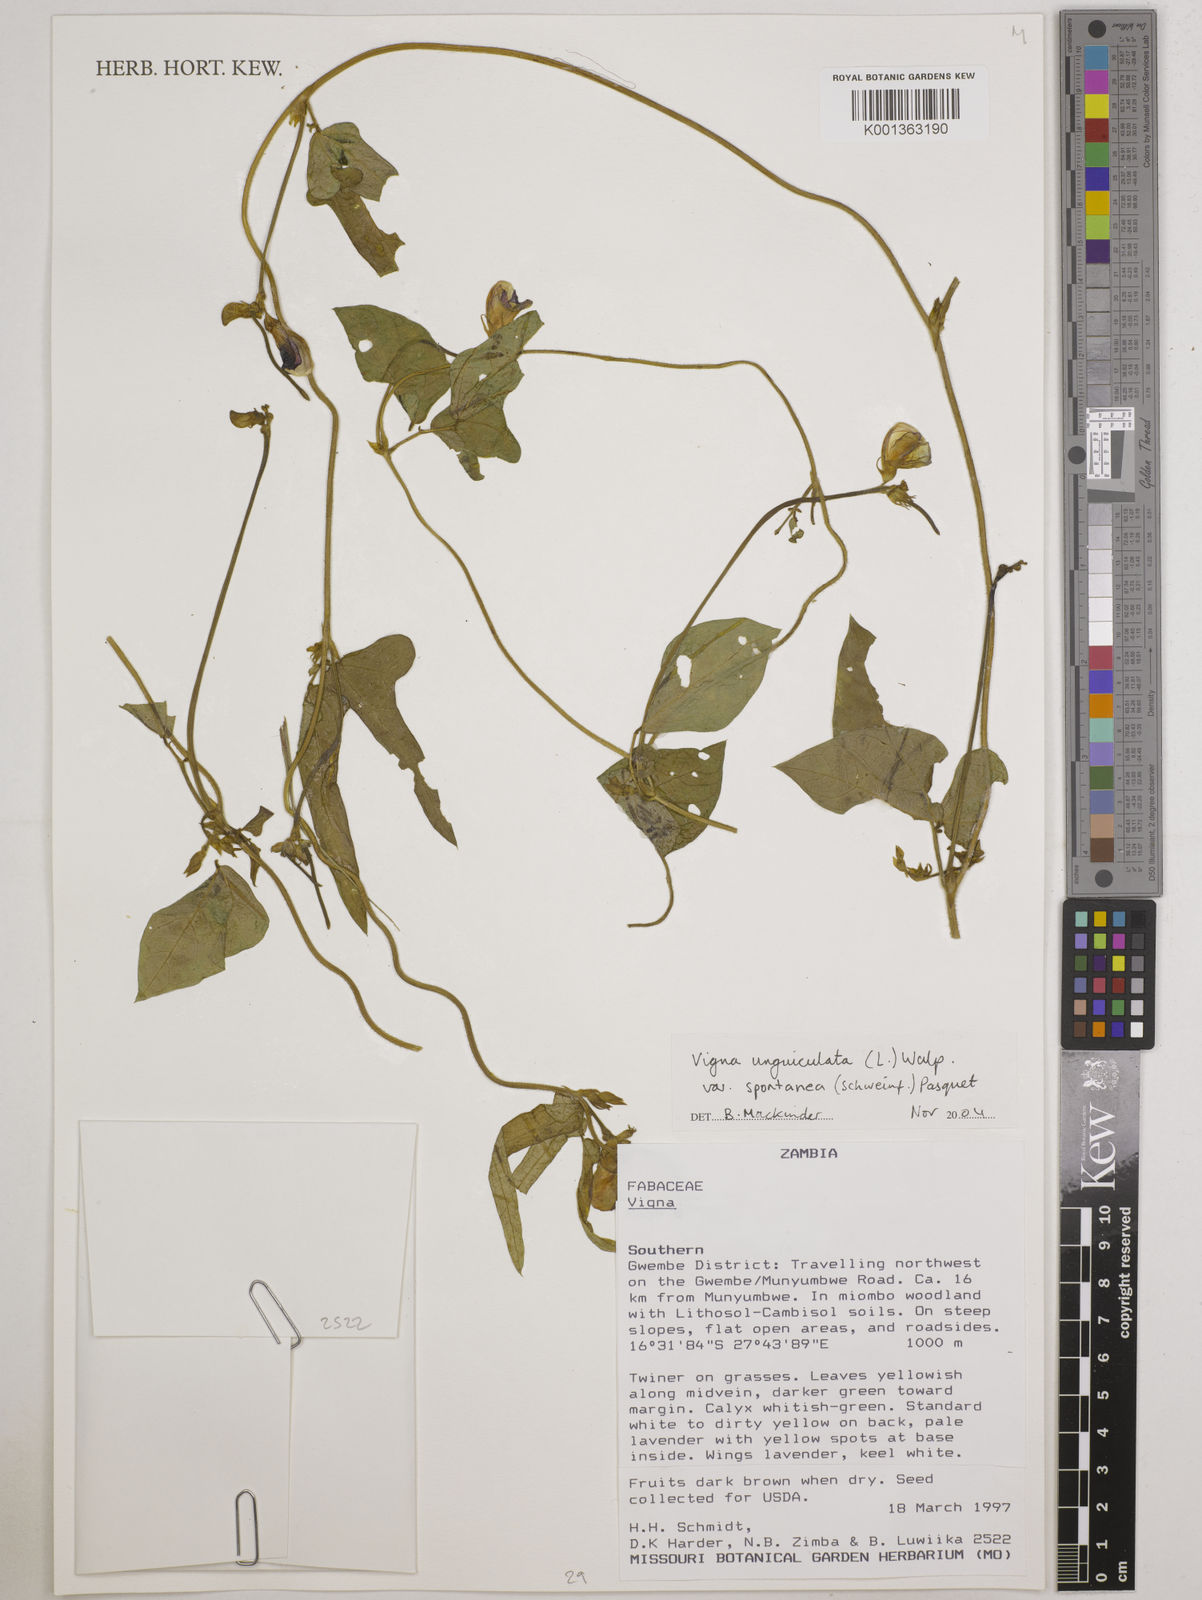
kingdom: Plantae
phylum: Tracheophyta
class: Magnoliopsida
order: Fabales
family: Fabaceae
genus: Vigna
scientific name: Vigna unguiculata
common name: Cowpea
